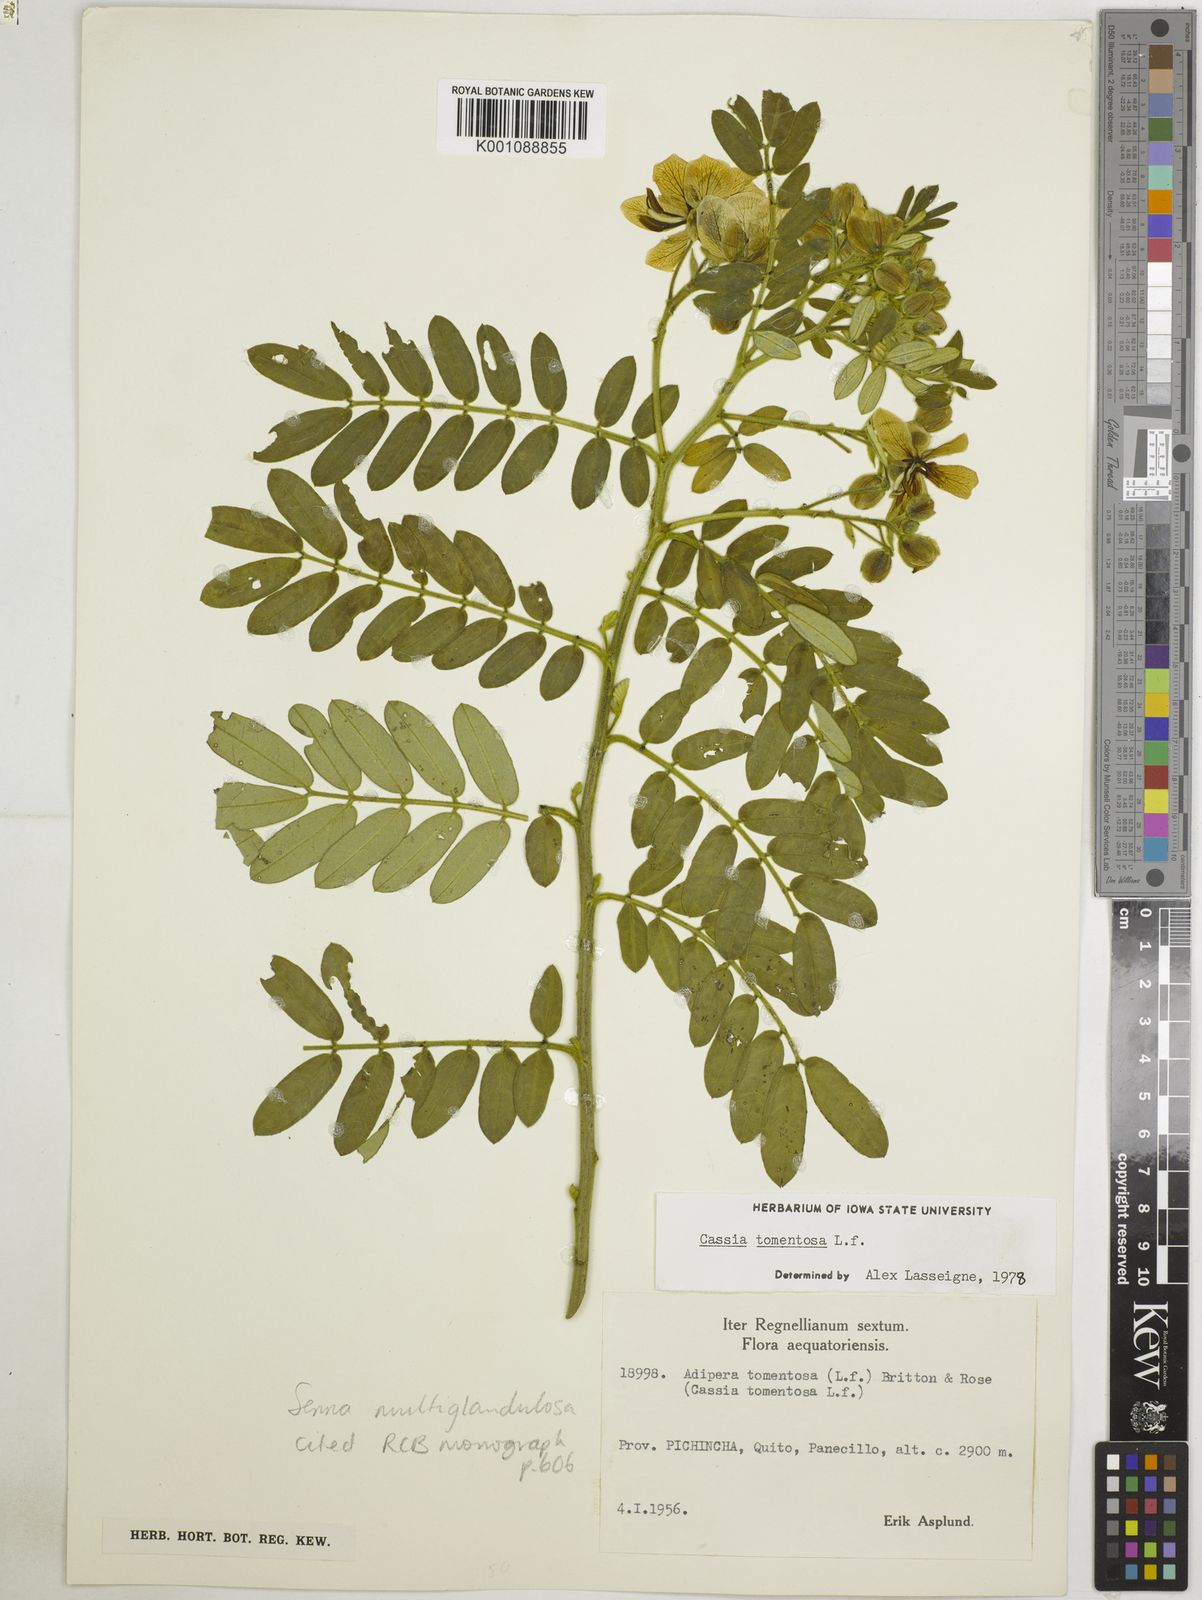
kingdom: Plantae
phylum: Tracheophyta
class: Magnoliopsida
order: Fabales
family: Fabaceae
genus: Senna
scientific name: Senna multiglandulosa
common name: Glandular senna
